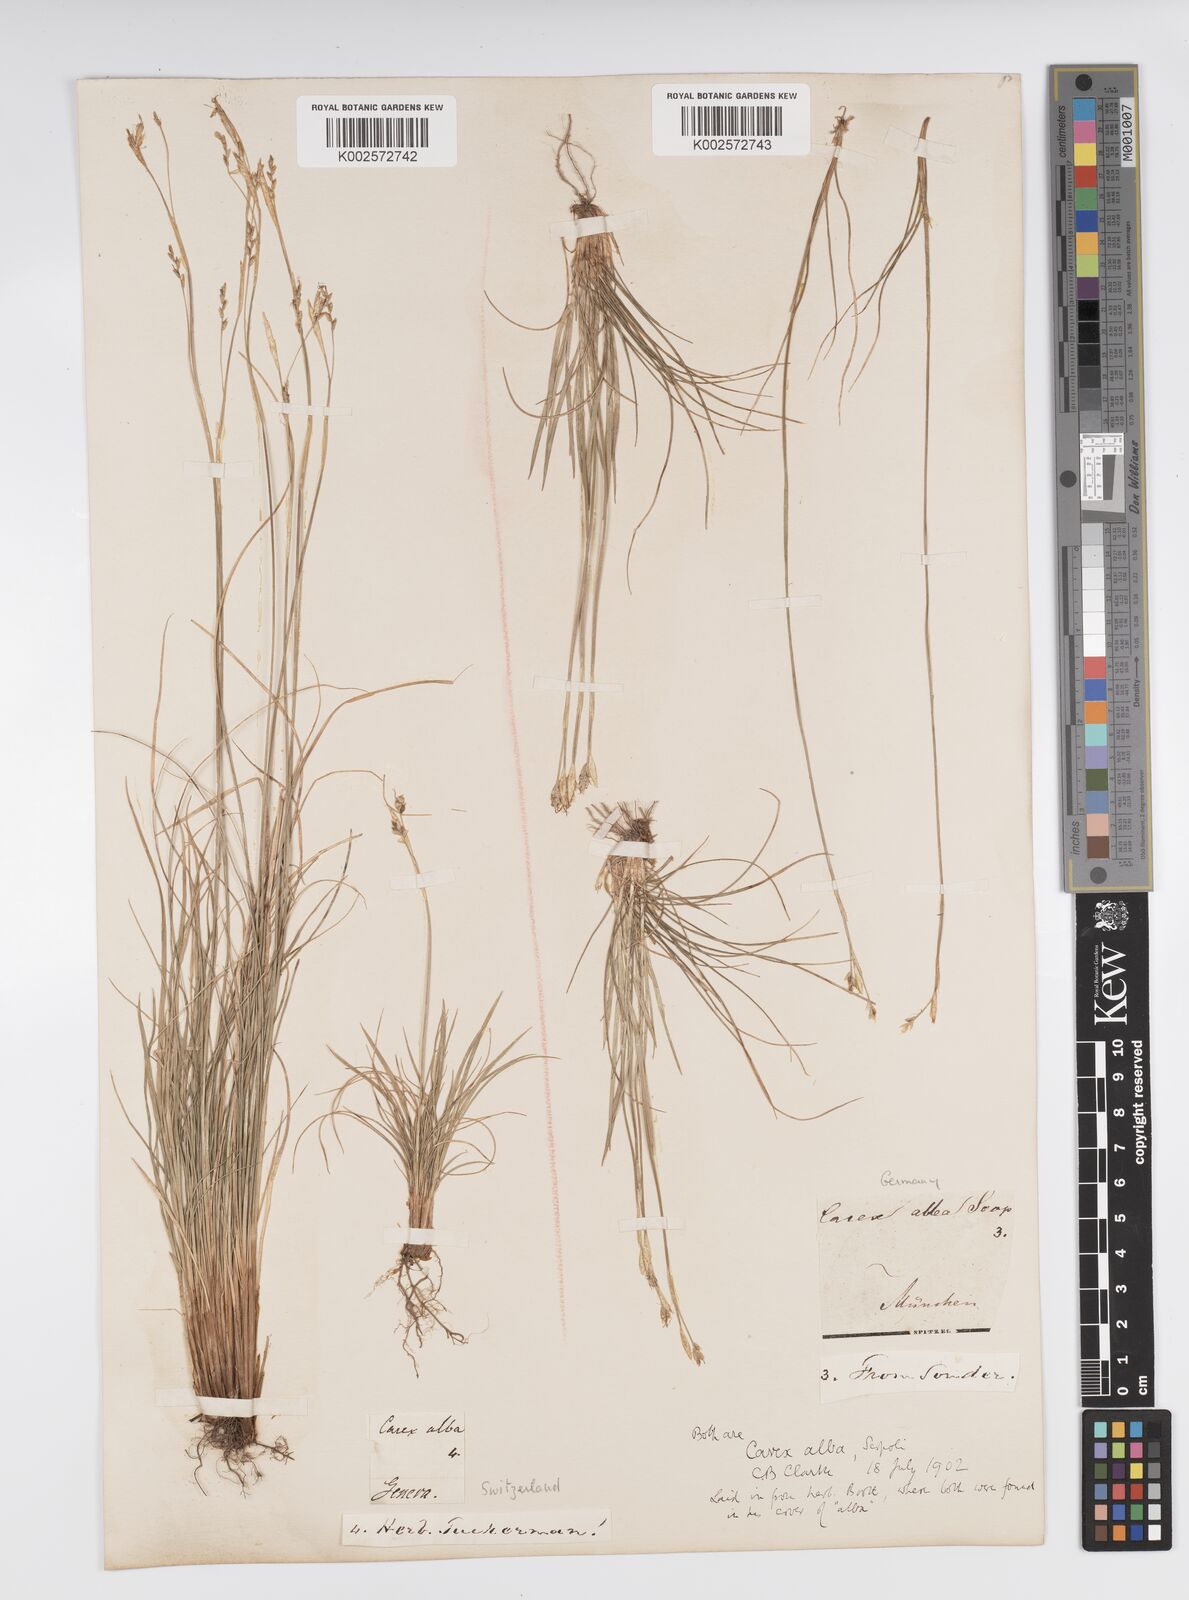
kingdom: Plantae
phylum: Tracheophyta
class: Liliopsida
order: Poales
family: Cyperaceae
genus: Carex
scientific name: Carex alba
